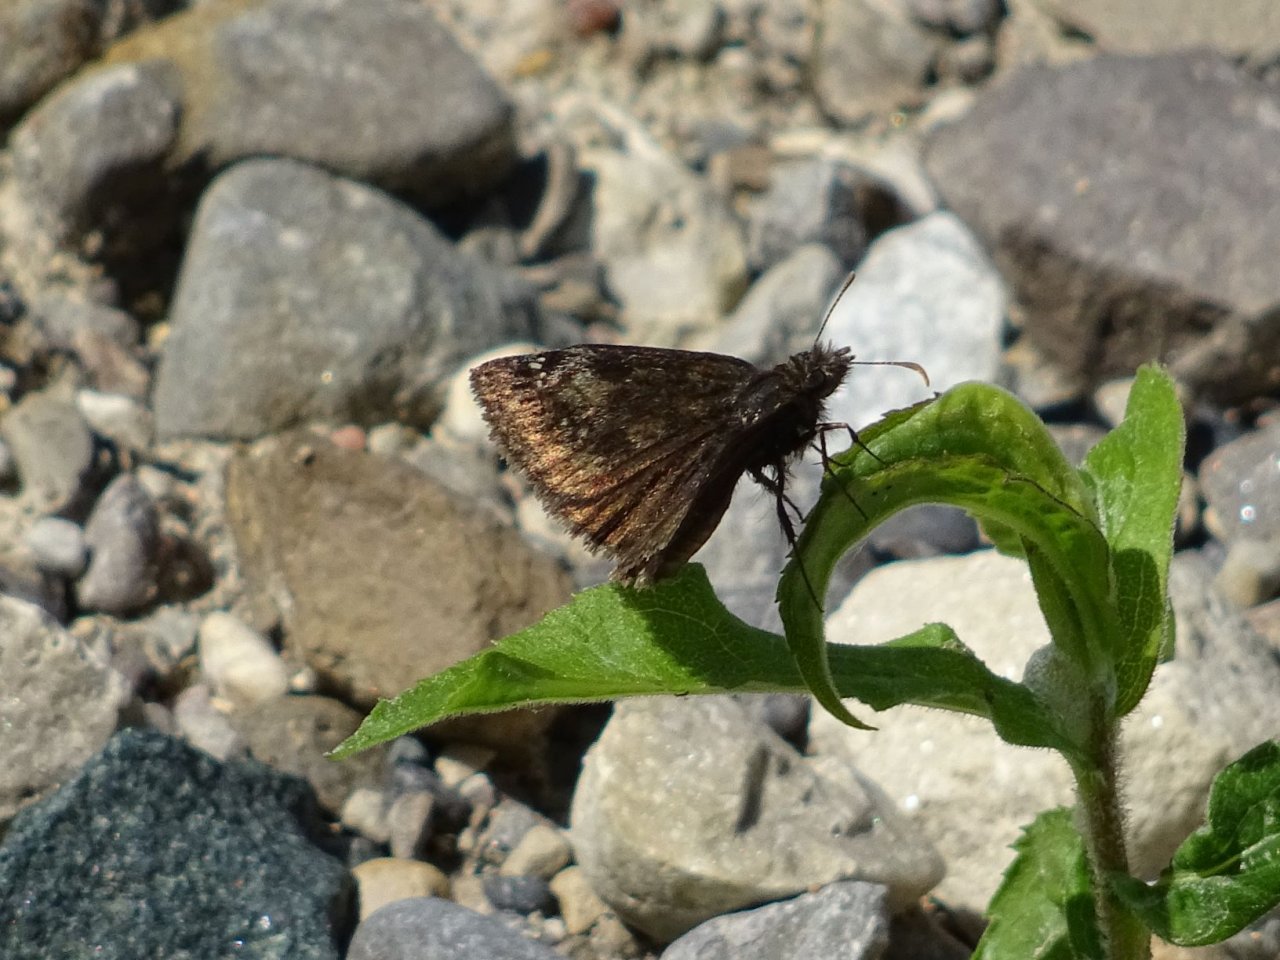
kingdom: Animalia
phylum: Arthropoda
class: Insecta
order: Lepidoptera
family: Hesperiidae
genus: Gesta
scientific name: Gesta
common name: Wild Indigo Duskywing
